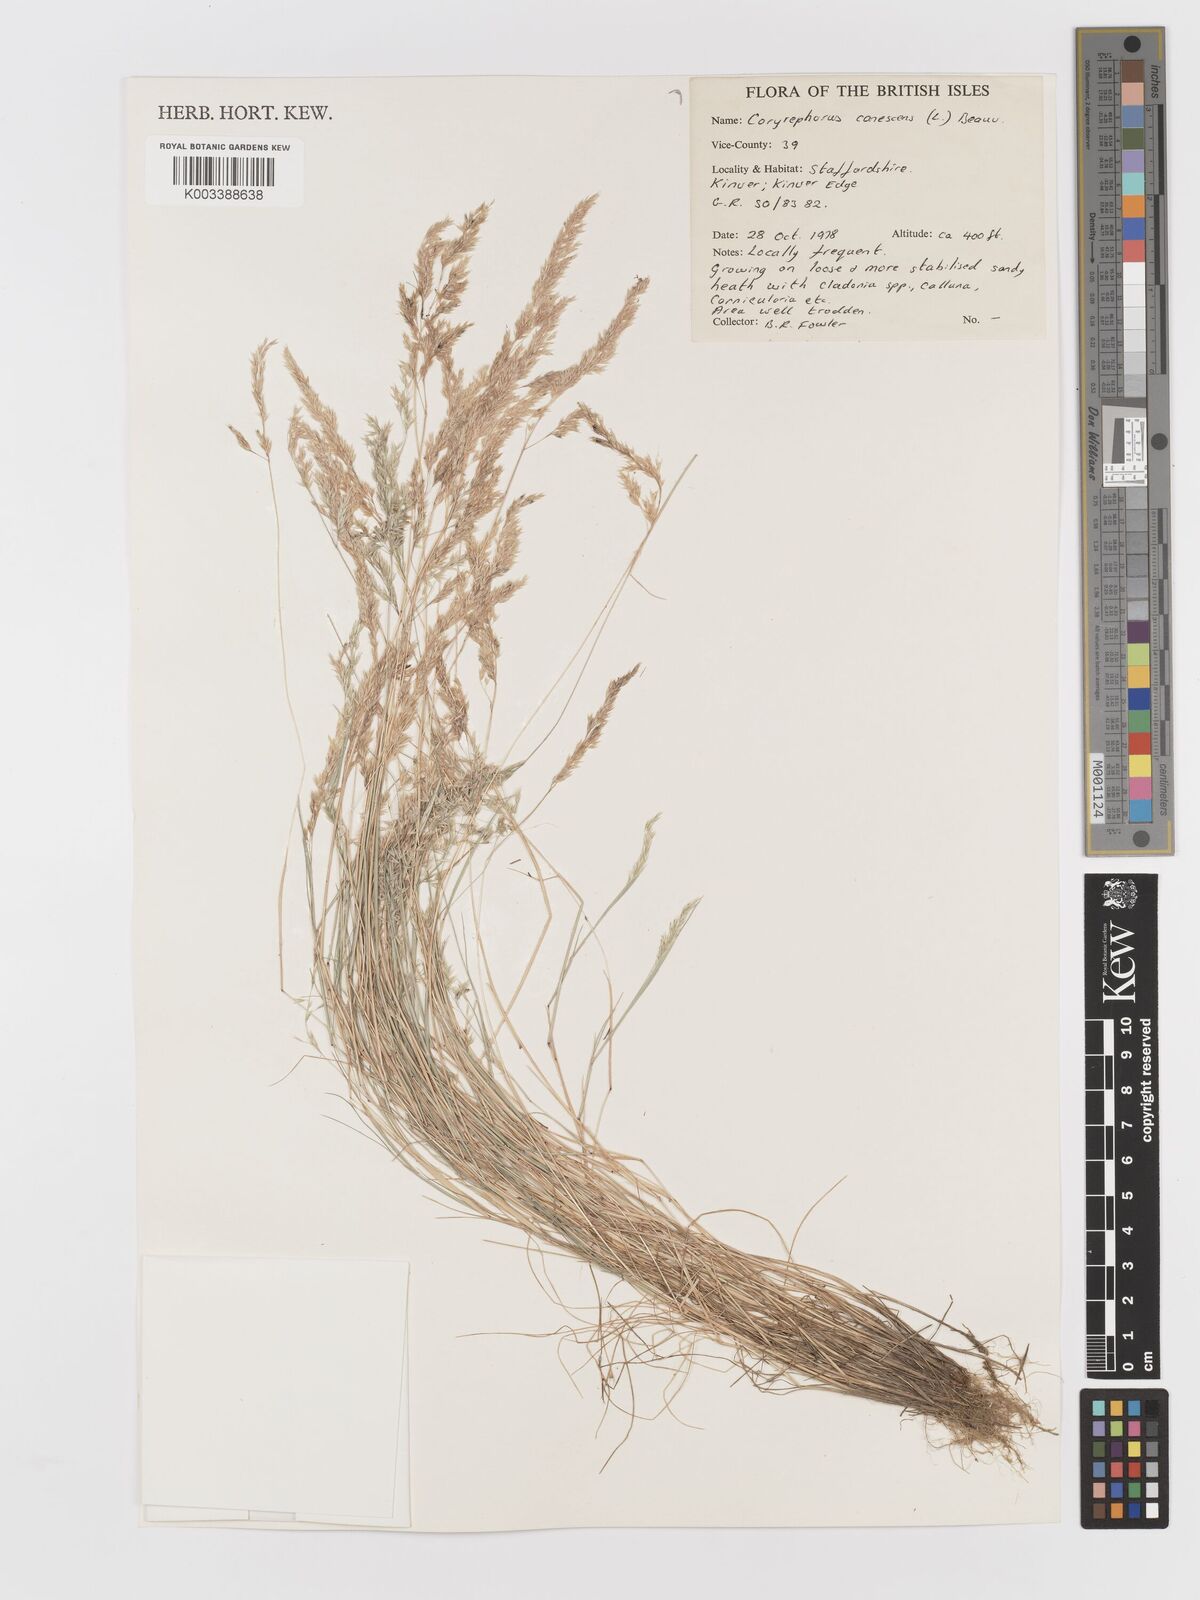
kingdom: Plantae
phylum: Tracheophyta
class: Liliopsida
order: Poales
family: Poaceae
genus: Corynephorus
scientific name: Corynephorus canescens
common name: Grey hair-grass
